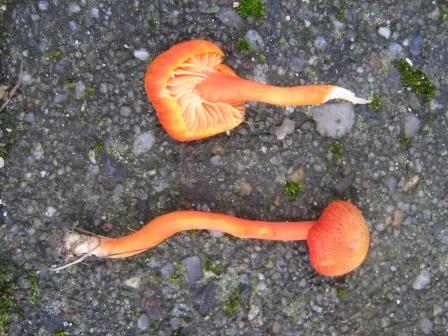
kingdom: Fungi
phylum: Basidiomycota
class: Agaricomycetes
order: Agaricales
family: Hygrophoraceae
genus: Hygrocybe
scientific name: Hygrocybe miniata
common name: mønje-vokshat
